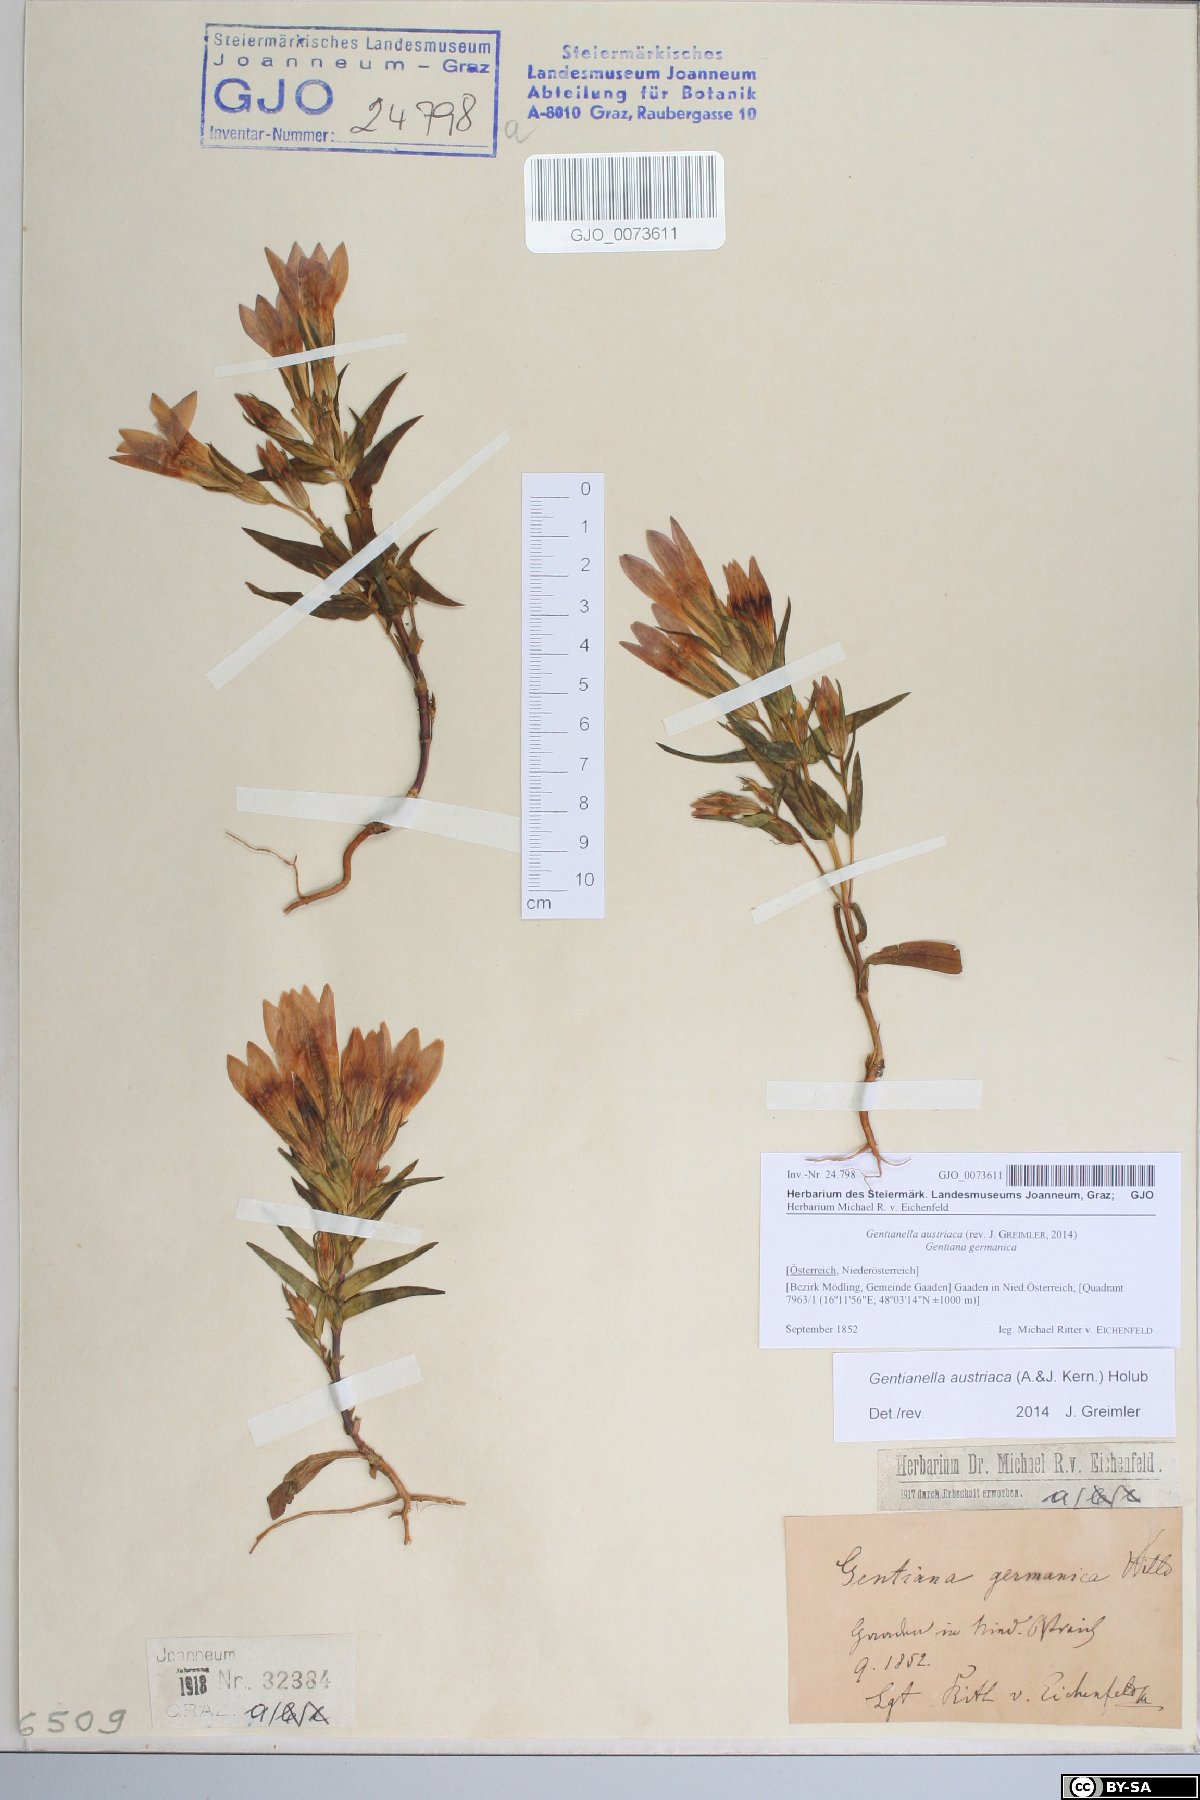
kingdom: Plantae
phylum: Tracheophyta
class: Magnoliopsida
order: Gentianales
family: Gentianaceae
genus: Gentianella
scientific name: Gentianella austriaca
